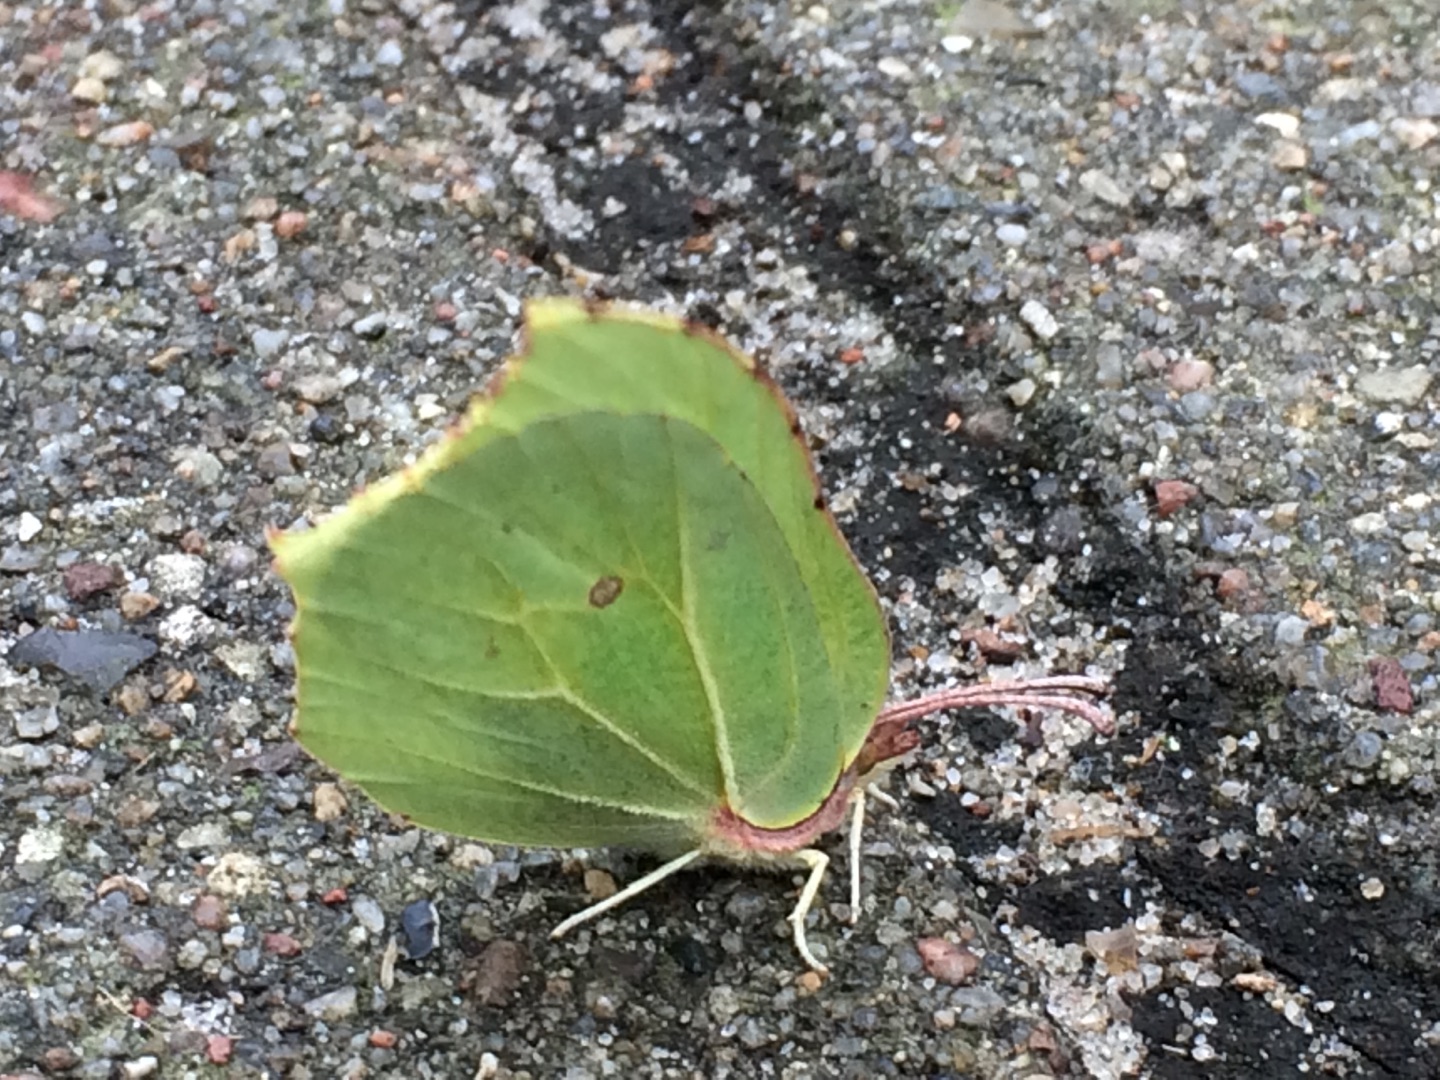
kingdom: Animalia
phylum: Arthropoda
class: Insecta
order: Lepidoptera
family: Pieridae
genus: Gonepteryx
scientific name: Gonepteryx rhamni
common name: Citronsommerfugl
